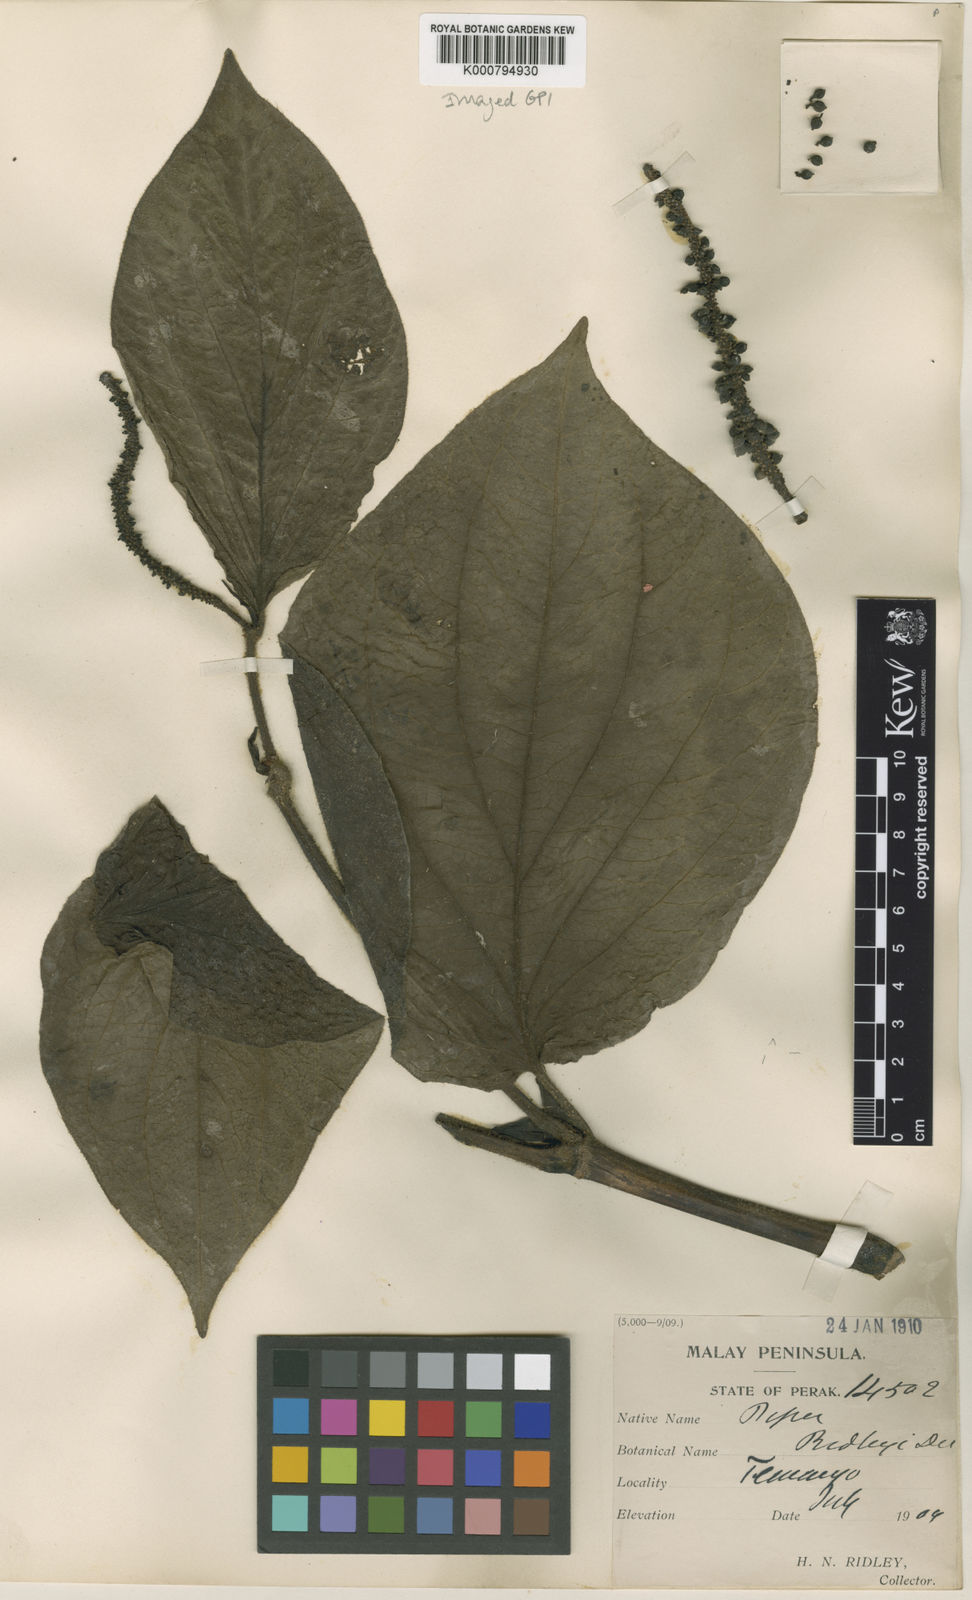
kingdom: Plantae
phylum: Tracheophyta
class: Magnoliopsida
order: Piperales
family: Piperaceae
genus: Piper
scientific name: Piper ridleyi
